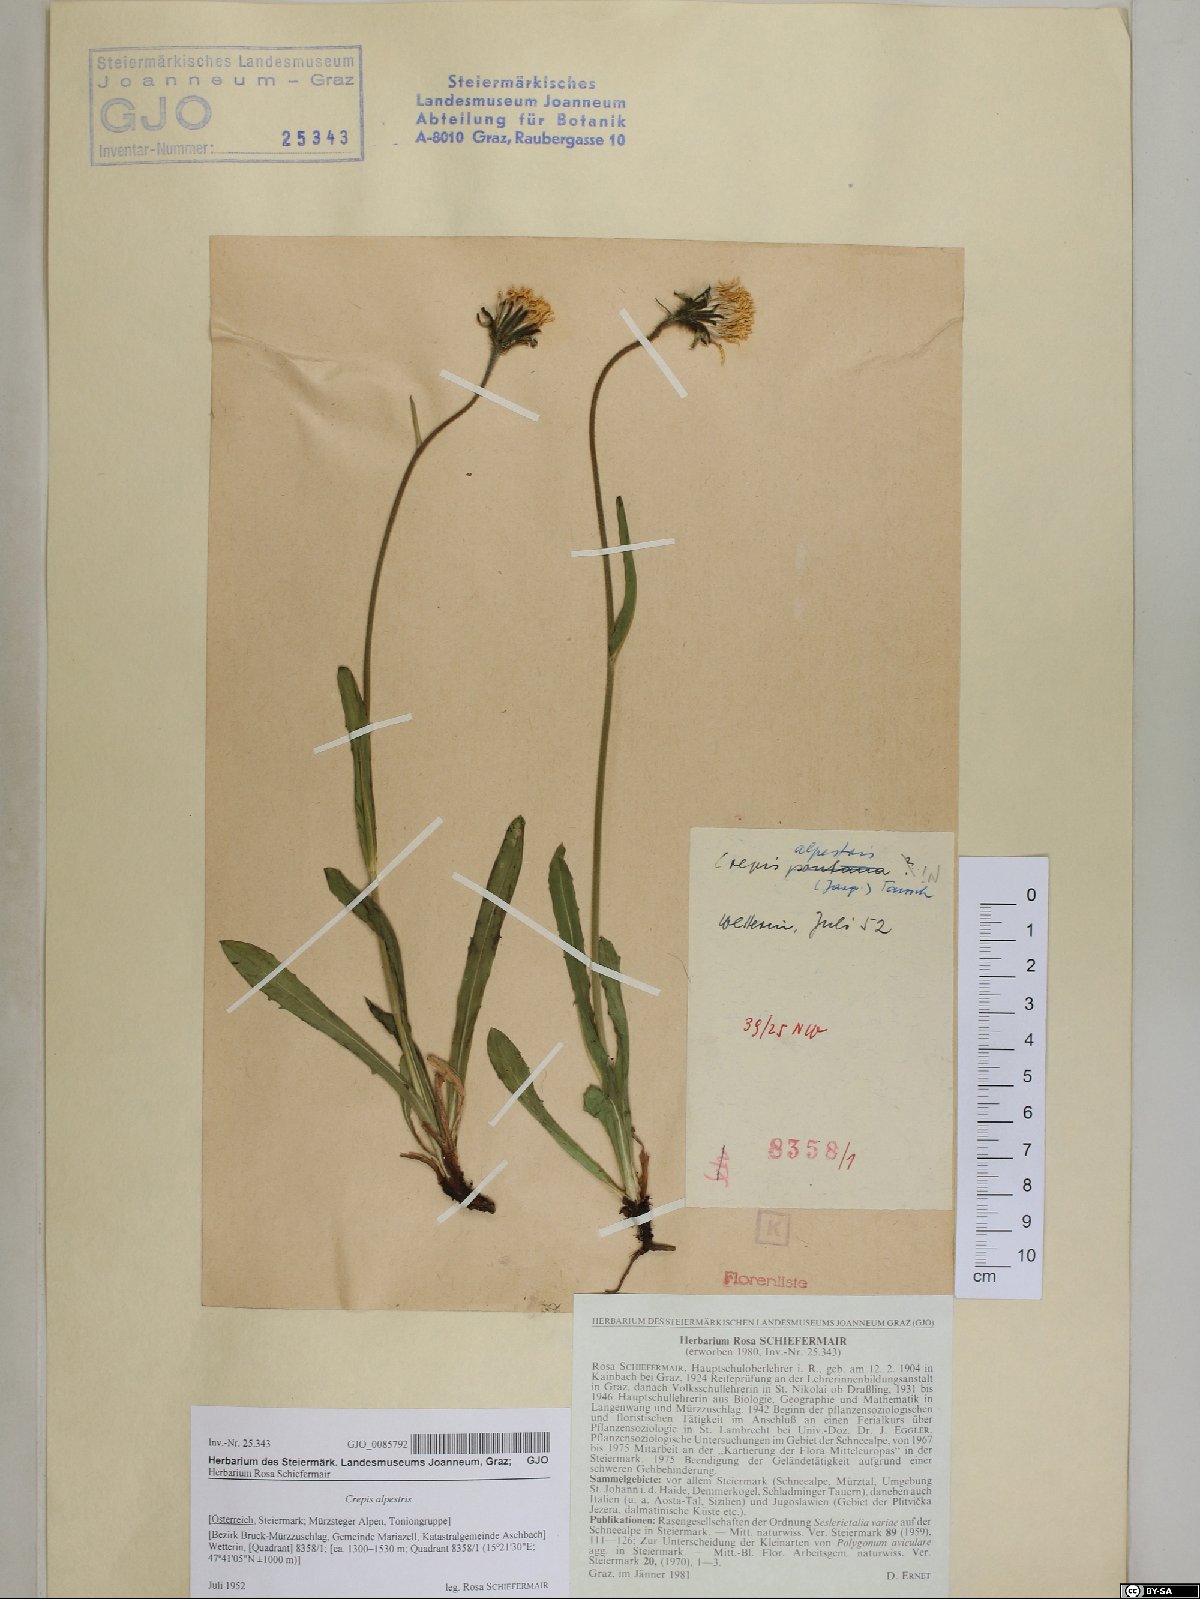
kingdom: Plantae
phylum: Tracheophyta
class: Magnoliopsida
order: Asterales
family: Asteraceae
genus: Crepis
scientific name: Crepis alpestris
